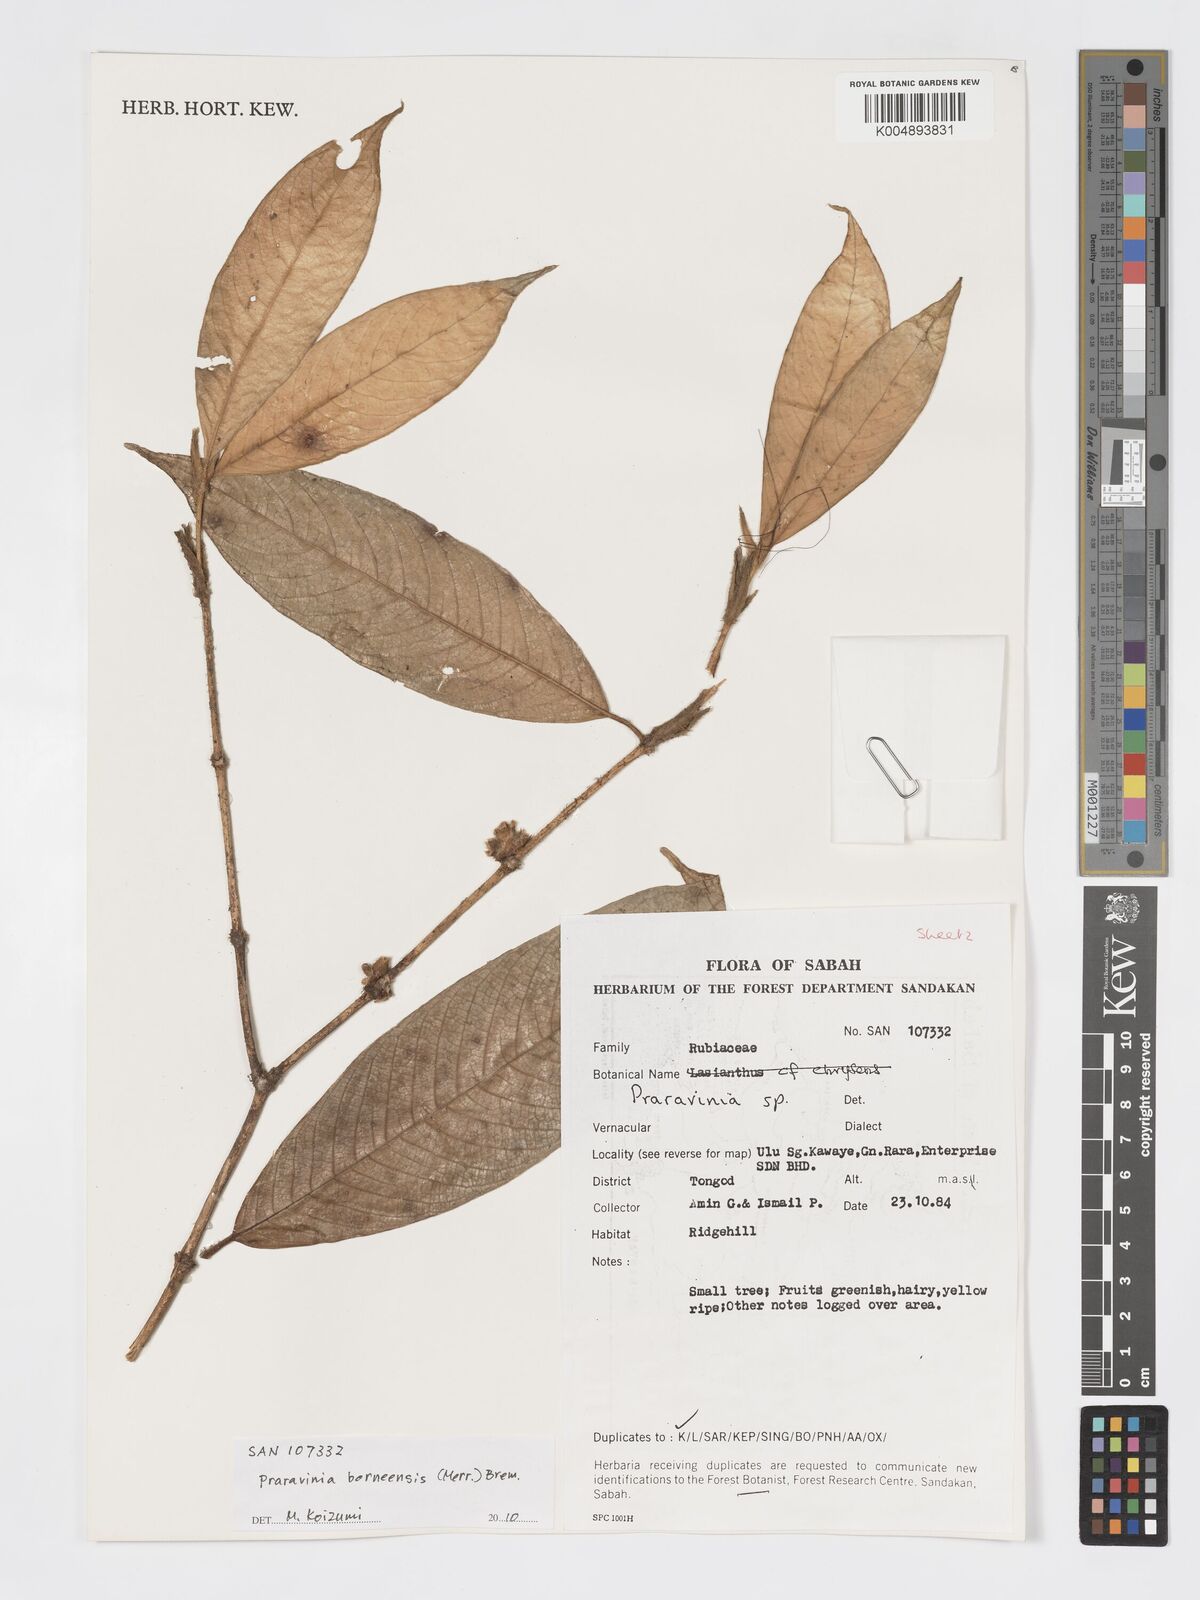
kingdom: Plantae
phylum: Tracheophyta
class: Magnoliopsida
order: Gentianales
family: Rubiaceae
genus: Praravinia
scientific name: Praravinia borneensis
